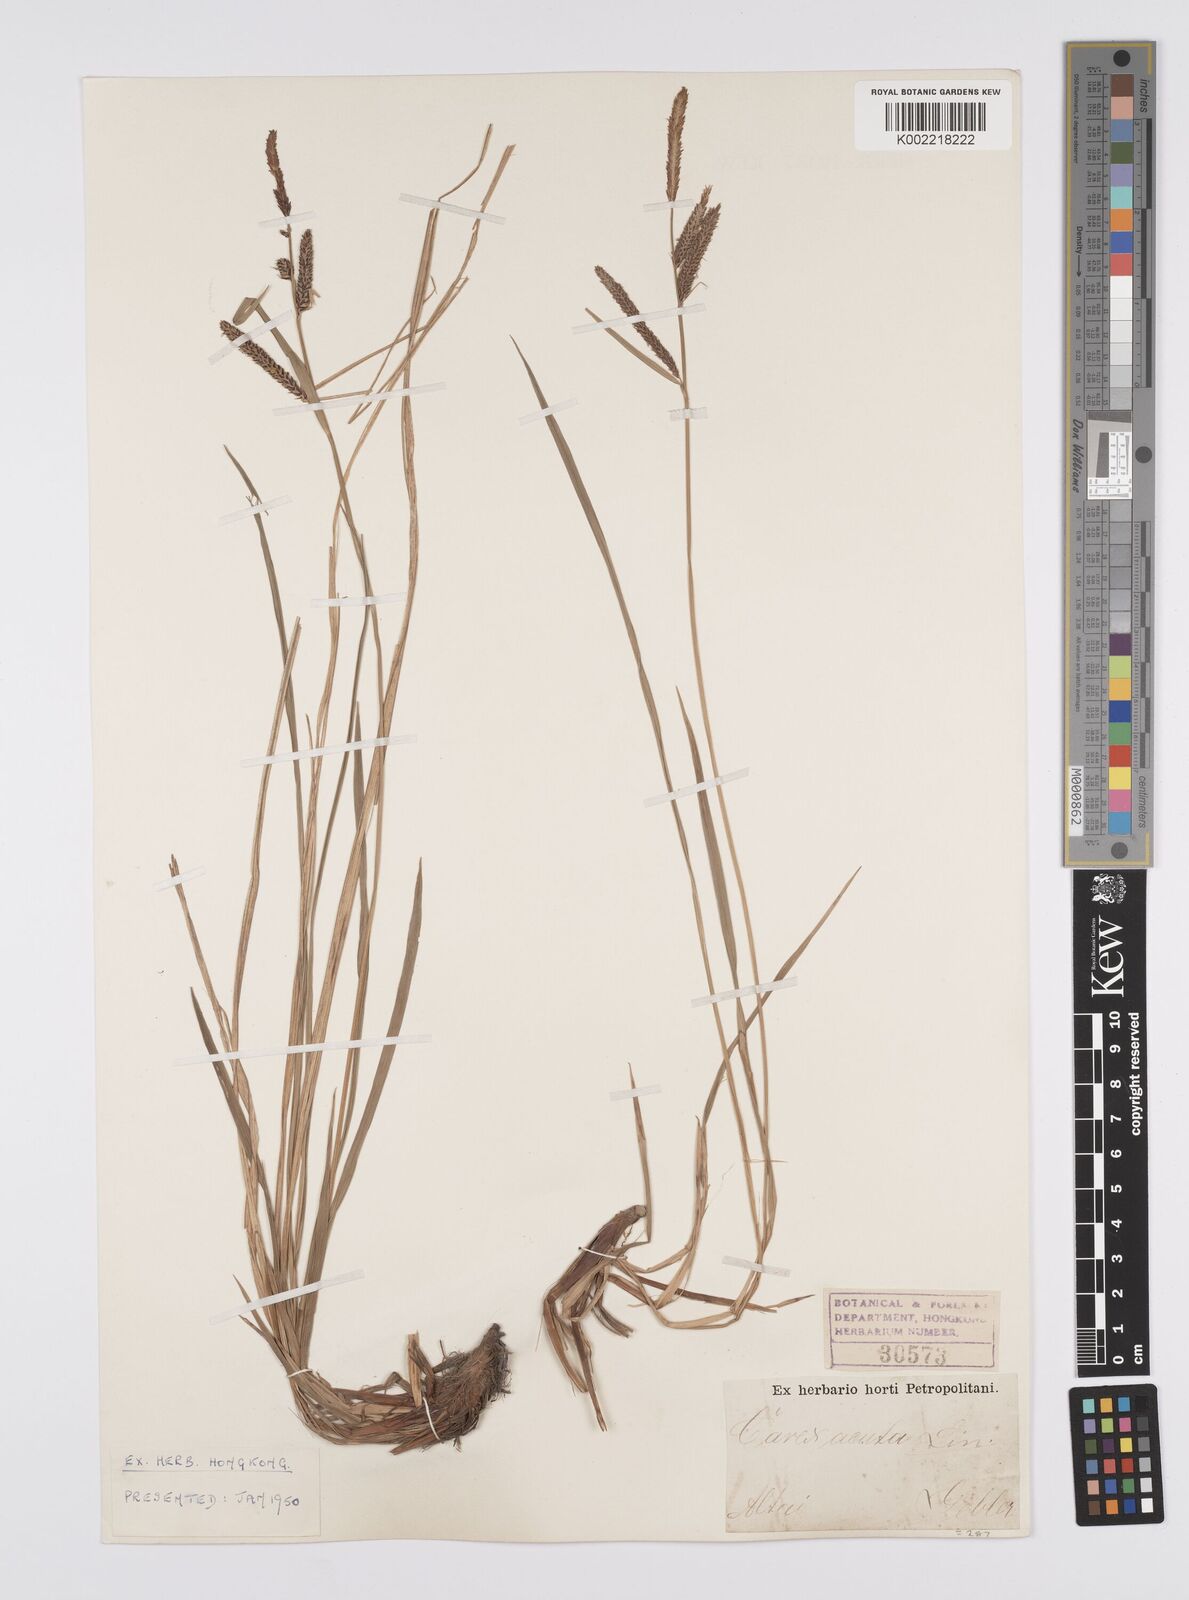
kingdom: Plantae
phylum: Tracheophyta
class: Liliopsida
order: Poales
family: Cyperaceae
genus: Carex
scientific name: Carex
